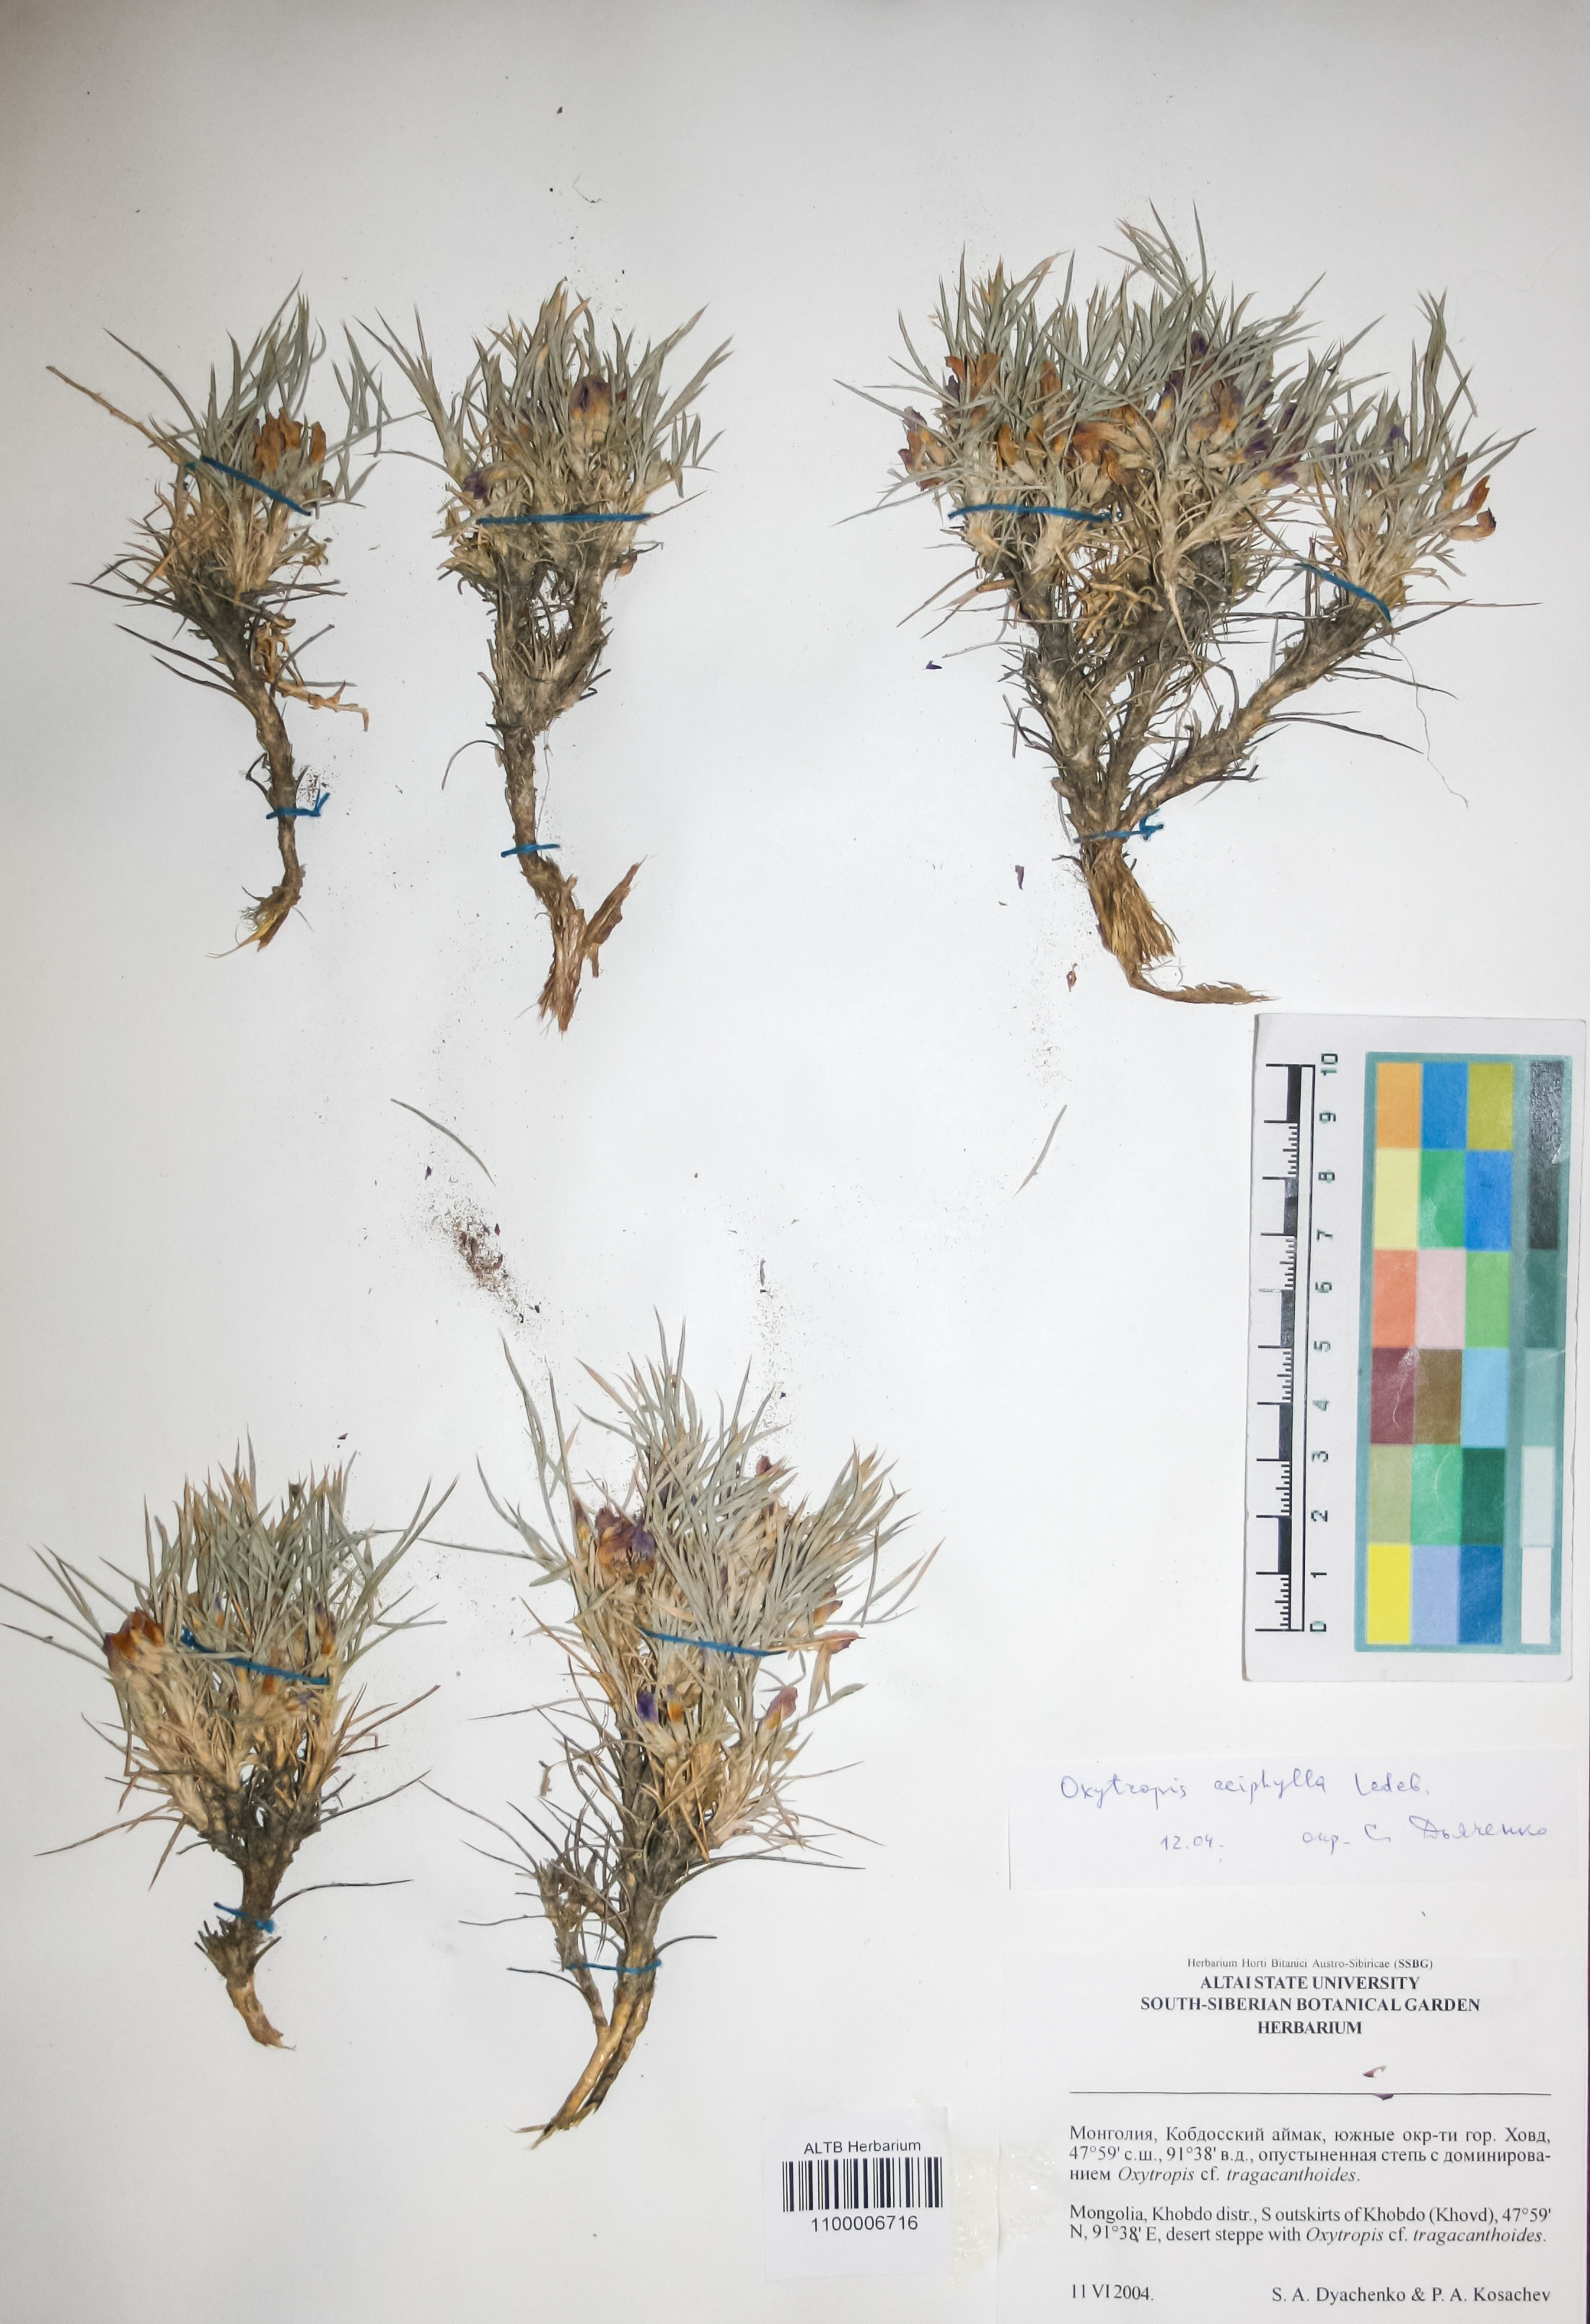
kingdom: Plantae
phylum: Tracheophyta
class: Magnoliopsida
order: Fabales
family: Fabaceae
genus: Oxytropis
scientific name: Oxytropis aciphylla
